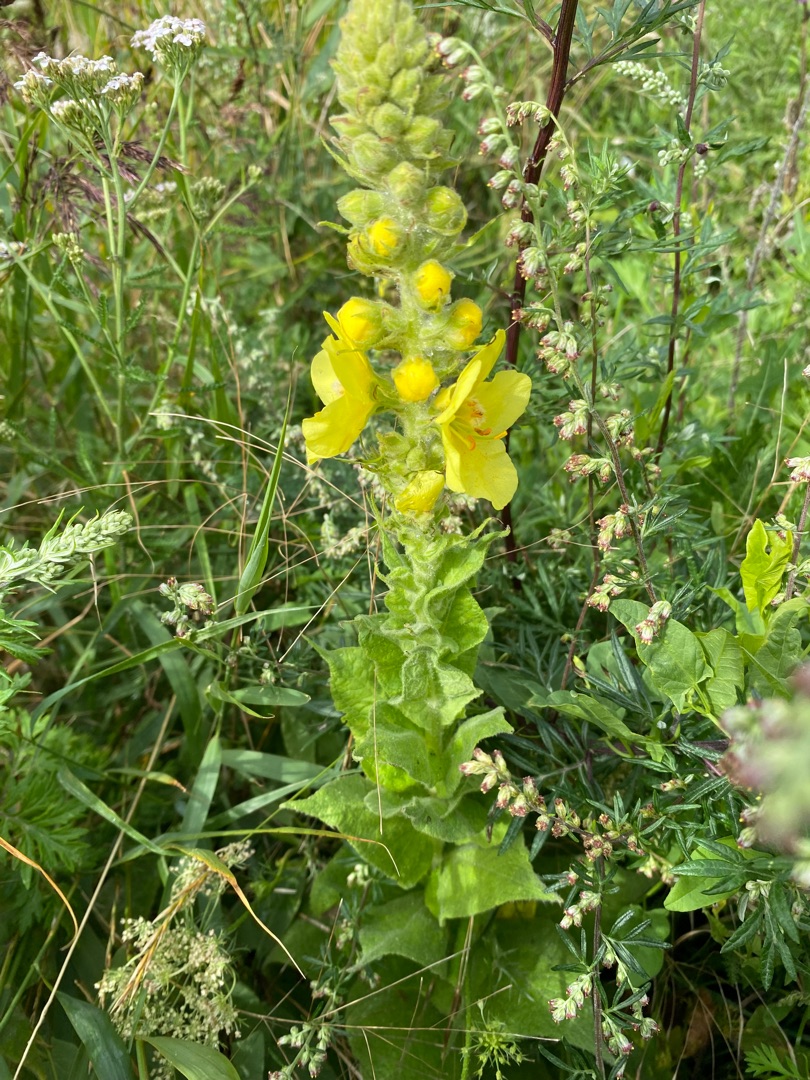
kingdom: Plantae
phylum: Tracheophyta
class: Magnoliopsida
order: Lamiales
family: Scrophulariaceae
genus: Verbascum
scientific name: Verbascum densiflorum
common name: Uldbladet kongelys
